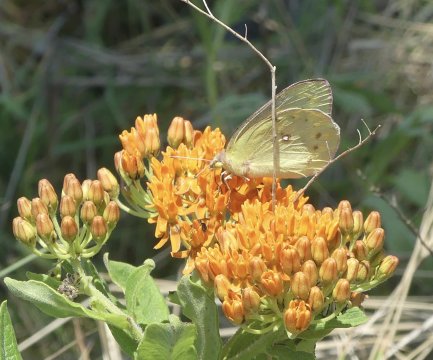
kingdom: Animalia
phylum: Arthropoda
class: Insecta
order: Lepidoptera
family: Pieridae
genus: Colias
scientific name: Colias philodice
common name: Clouded Sulphur
